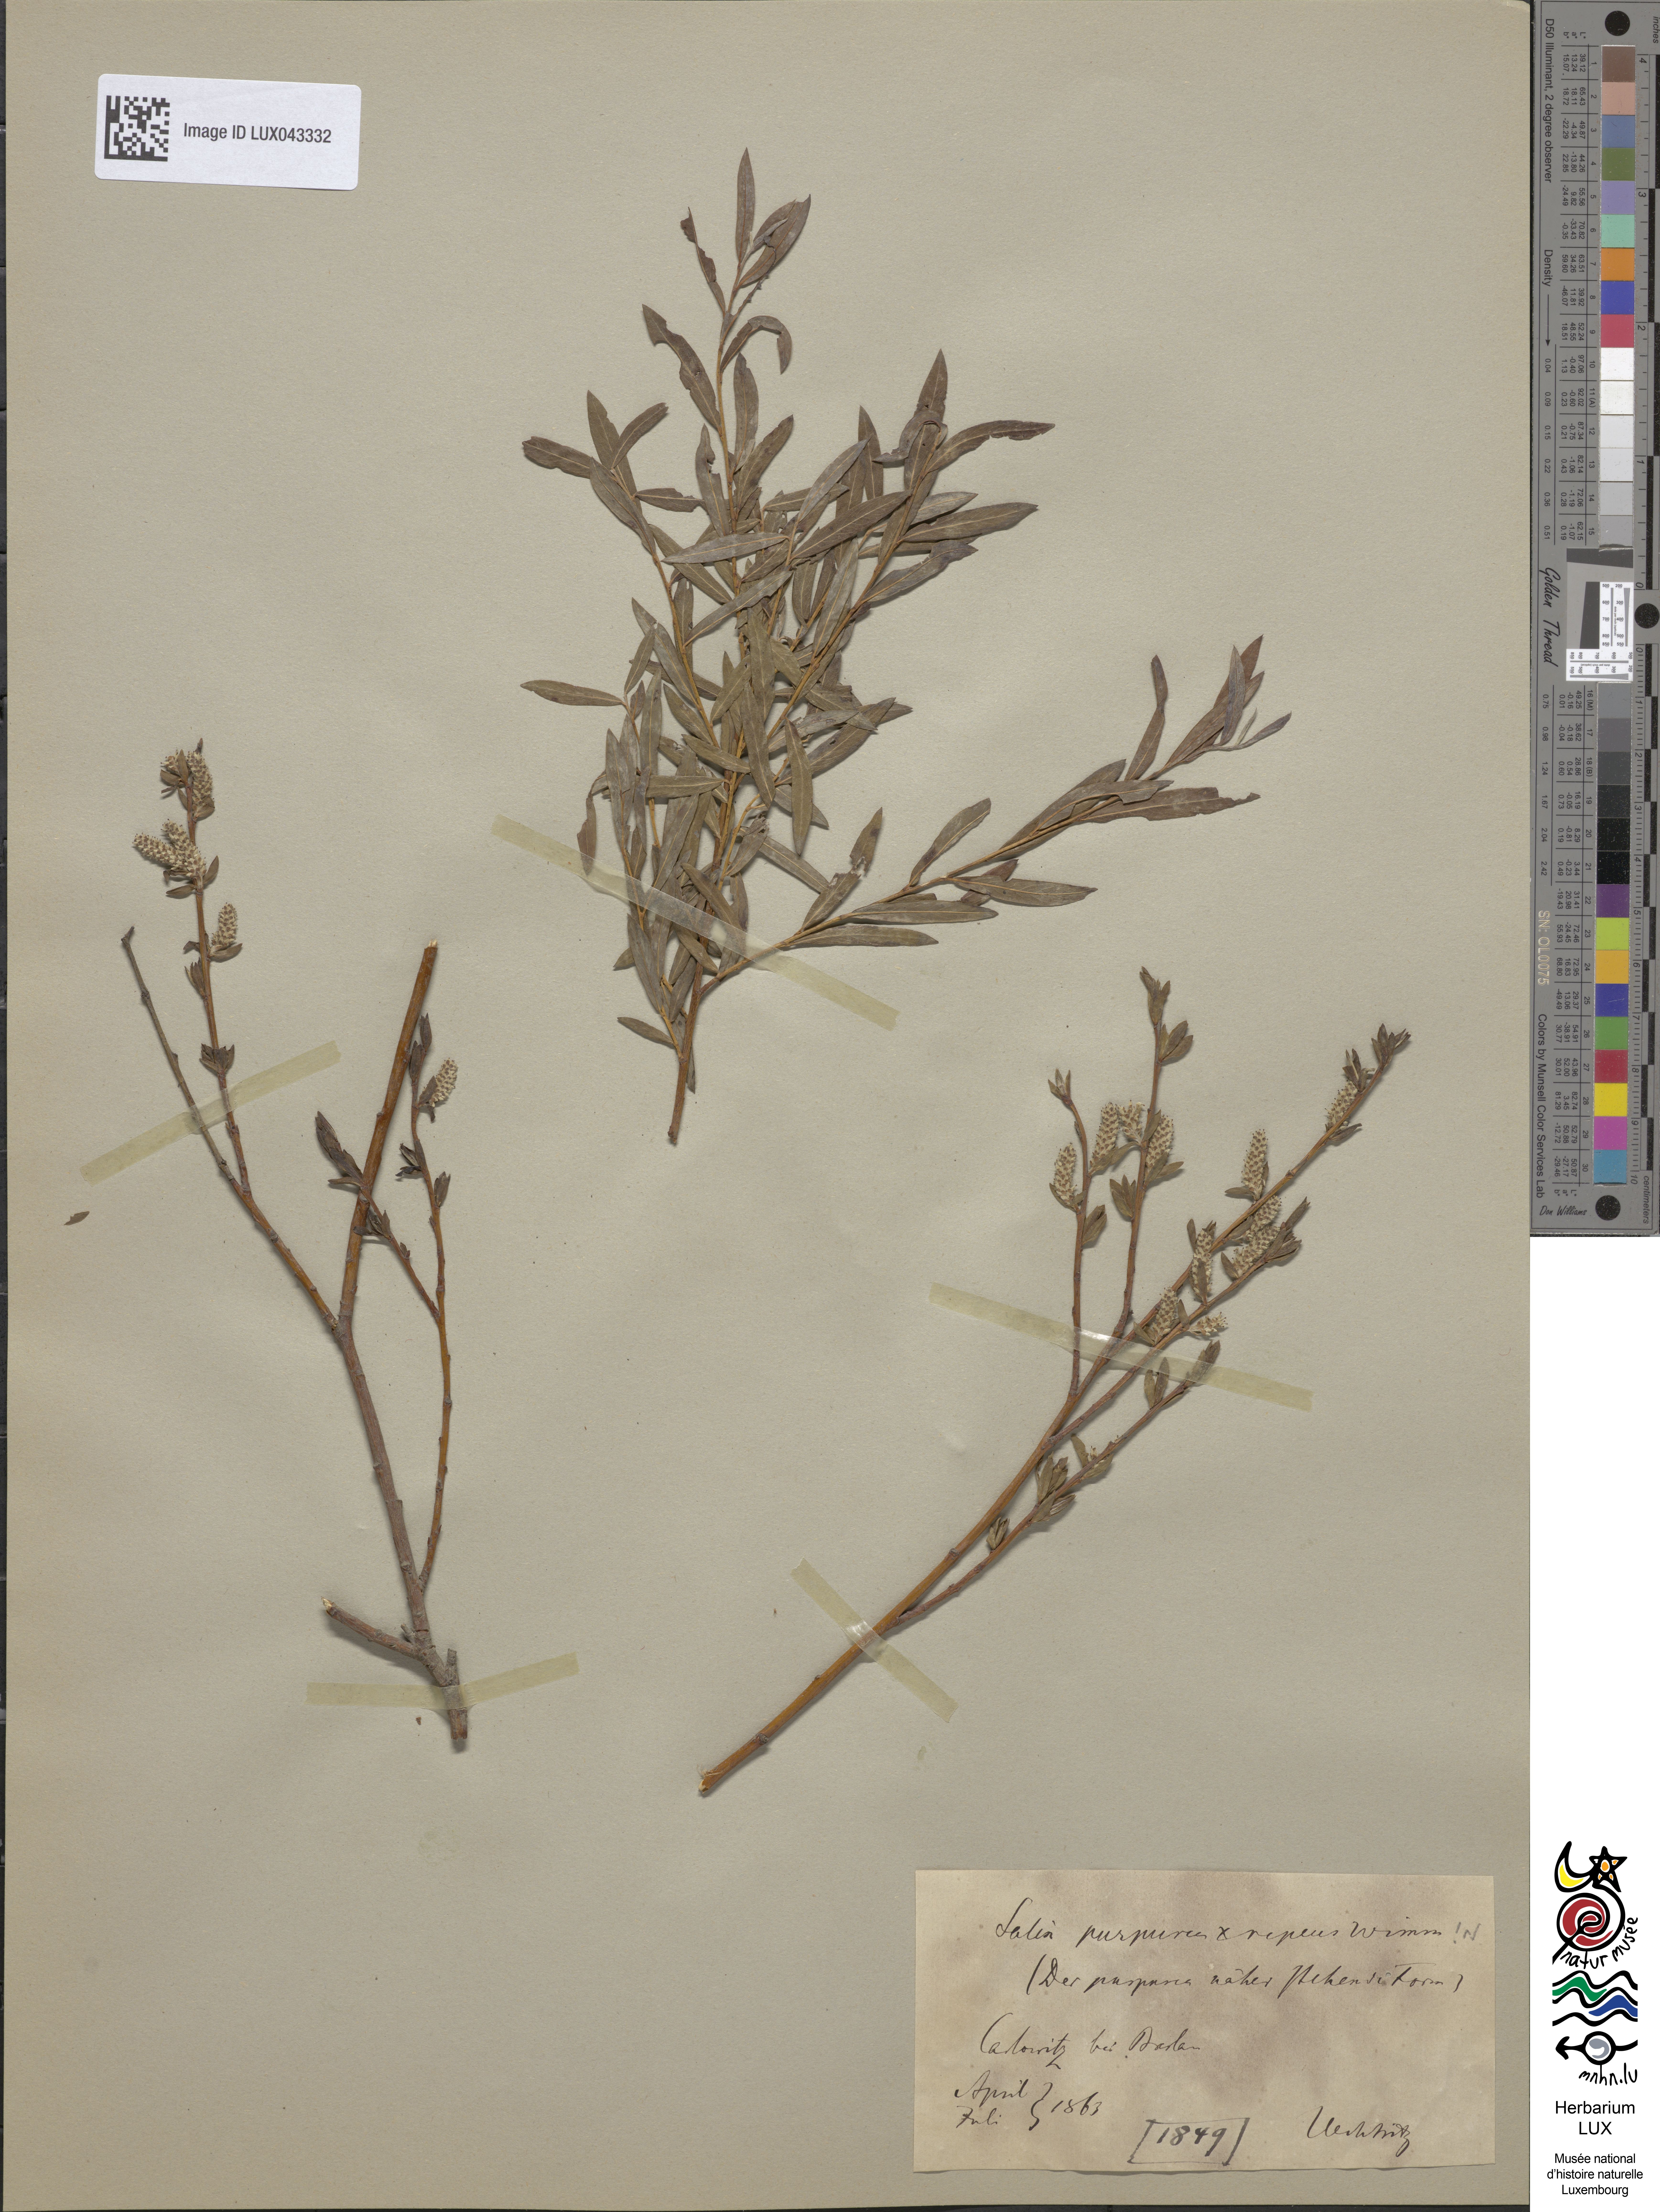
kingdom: Plantae
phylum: Tracheophyta
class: Magnoliopsida
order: Malpighiales
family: Salicaceae
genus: Salix
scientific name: Salix
